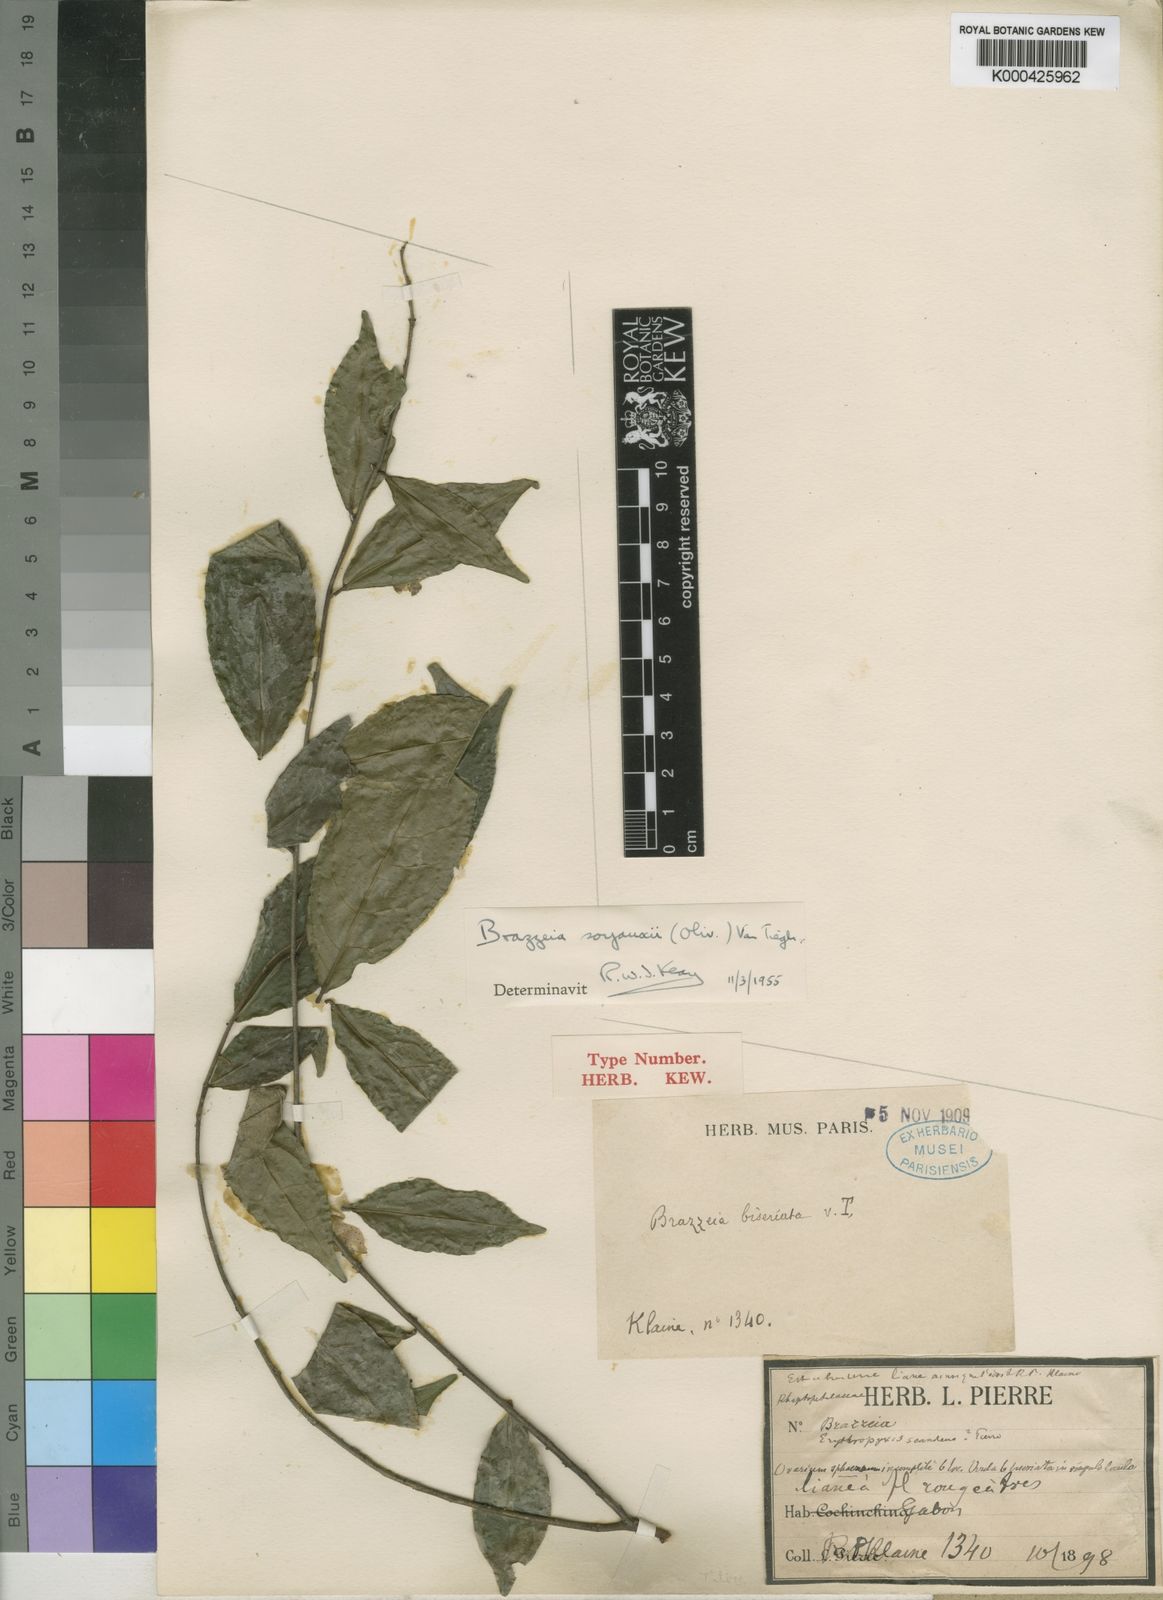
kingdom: Plantae
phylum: Tracheophyta
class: Magnoliopsida
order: Ericales
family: Lecythidaceae
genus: Brazzeia
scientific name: Brazzeia soyauxii
